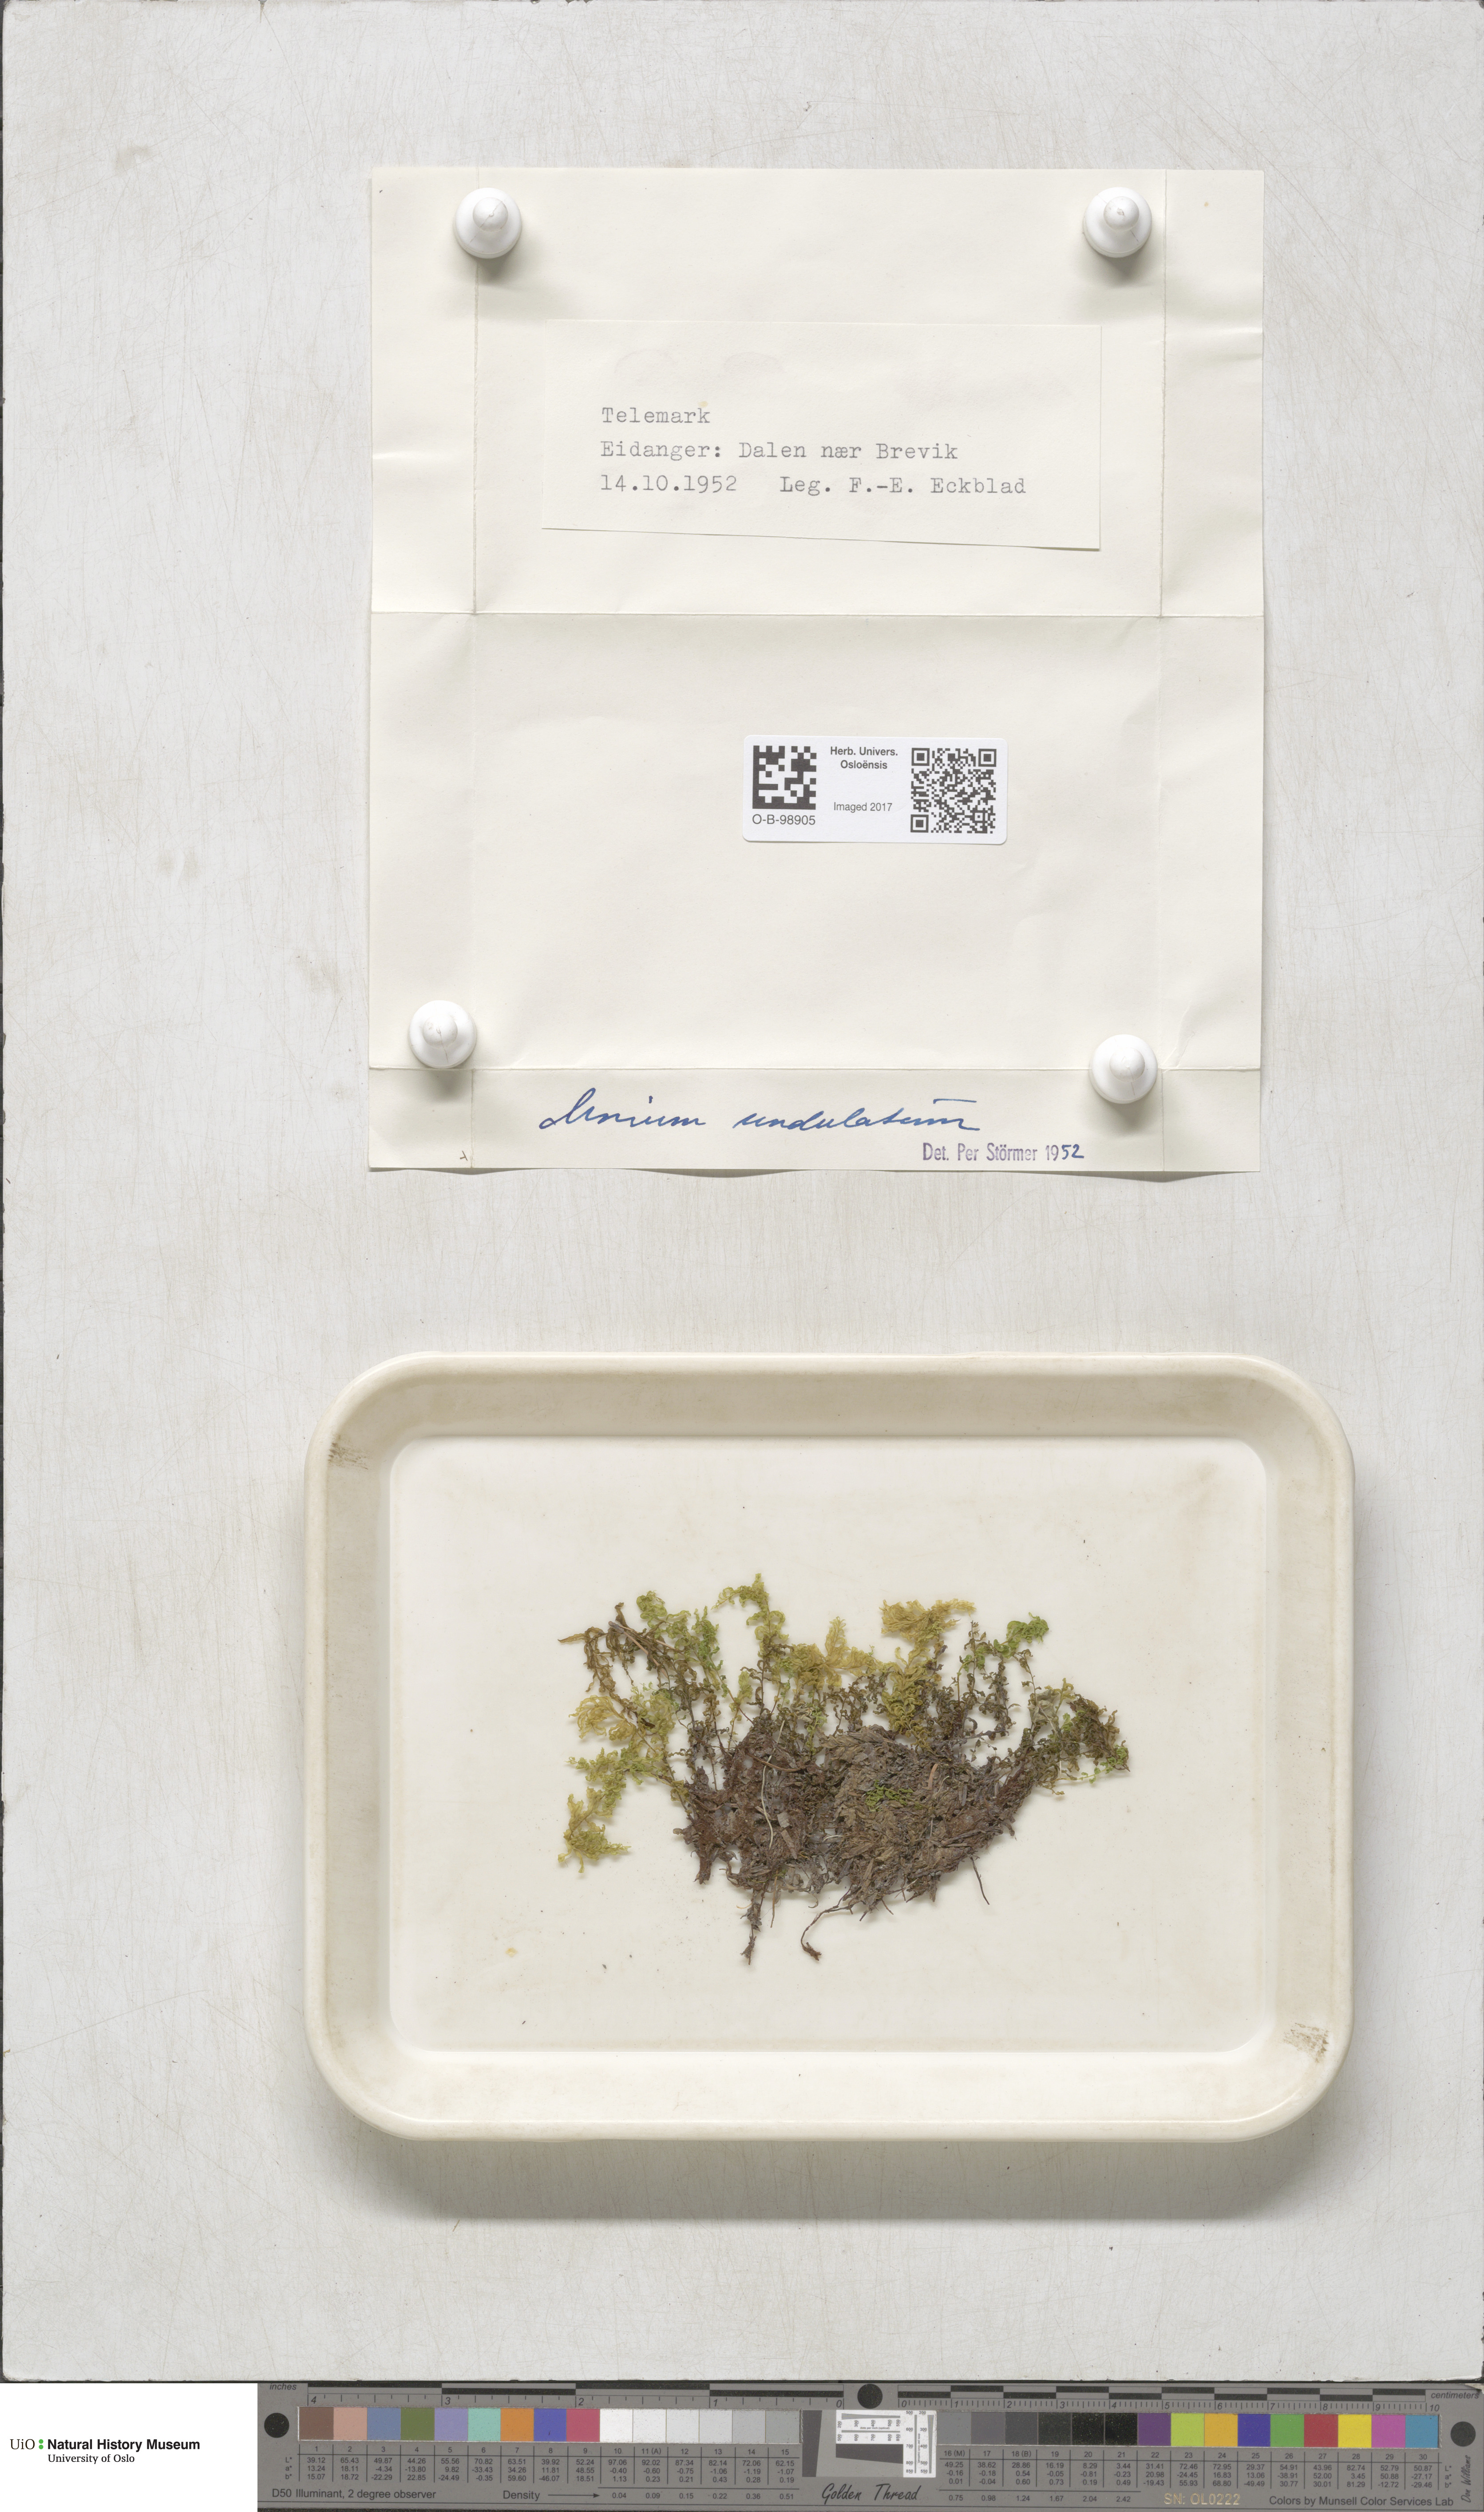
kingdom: Plantae
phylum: Bryophyta
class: Bryopsida
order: Bryales
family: Mniaceae
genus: Plagiomnium
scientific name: Plagiomnium undulatum
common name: Hart's-tongue thyme-moss
